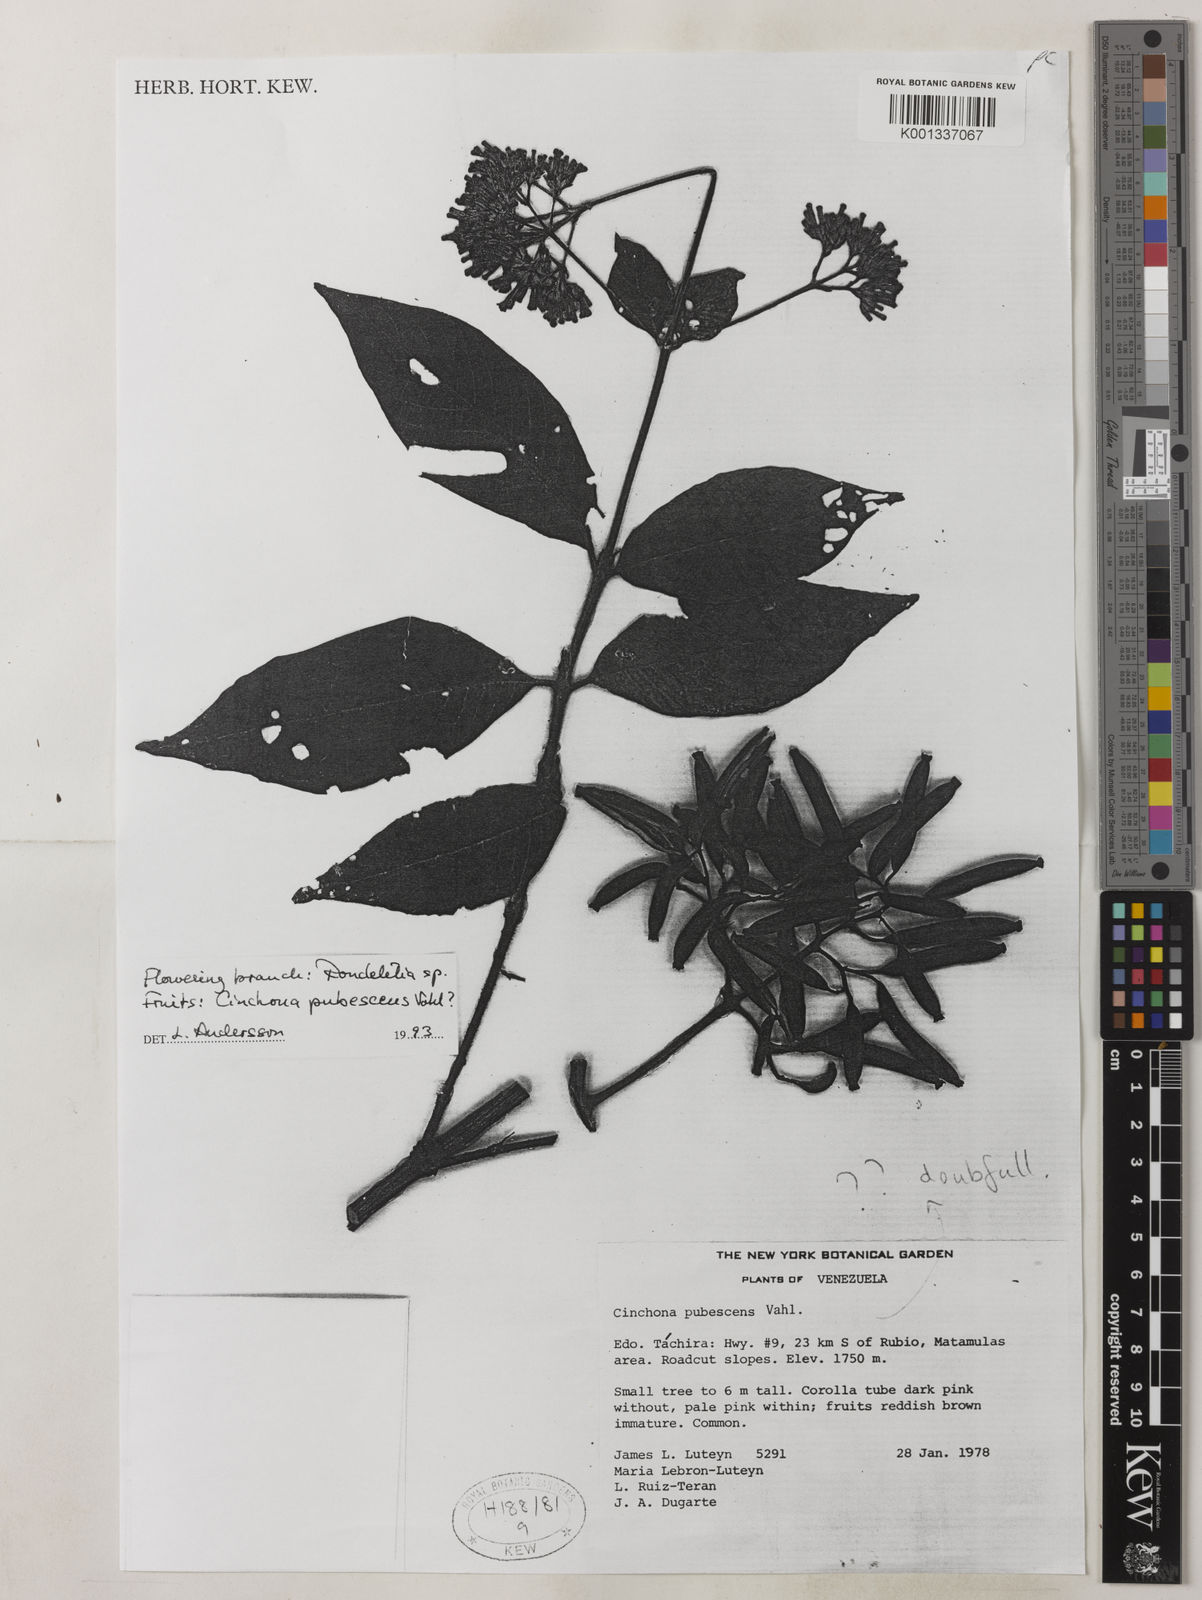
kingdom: Plantae
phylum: Tracheophyta
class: Magnoliopsida
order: Gentianales
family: Rubiaceae
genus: Cinchona
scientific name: Cinchona pubescens
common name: Quinine
